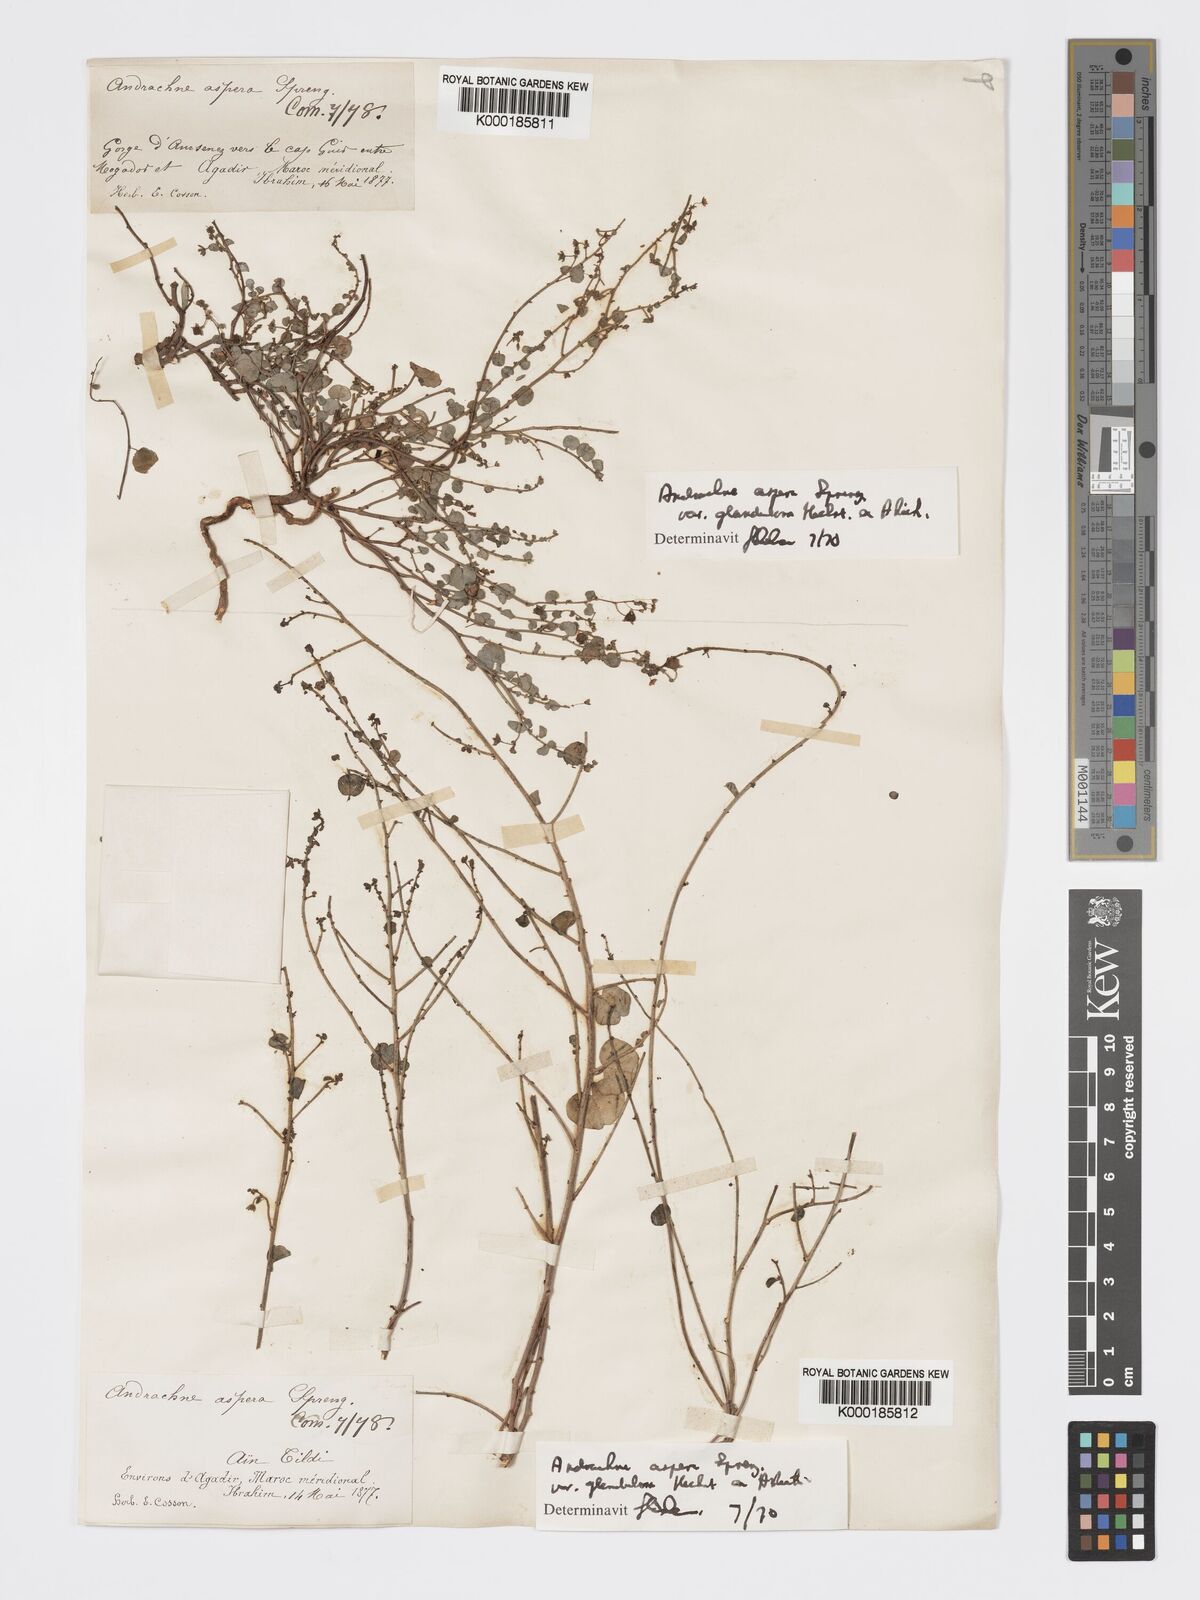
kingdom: Plantae
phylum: Tracheophyta
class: Magnoliopsida
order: Malpighiales
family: Phyllanthaceae
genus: Andrachne
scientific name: Andrachne aspera
